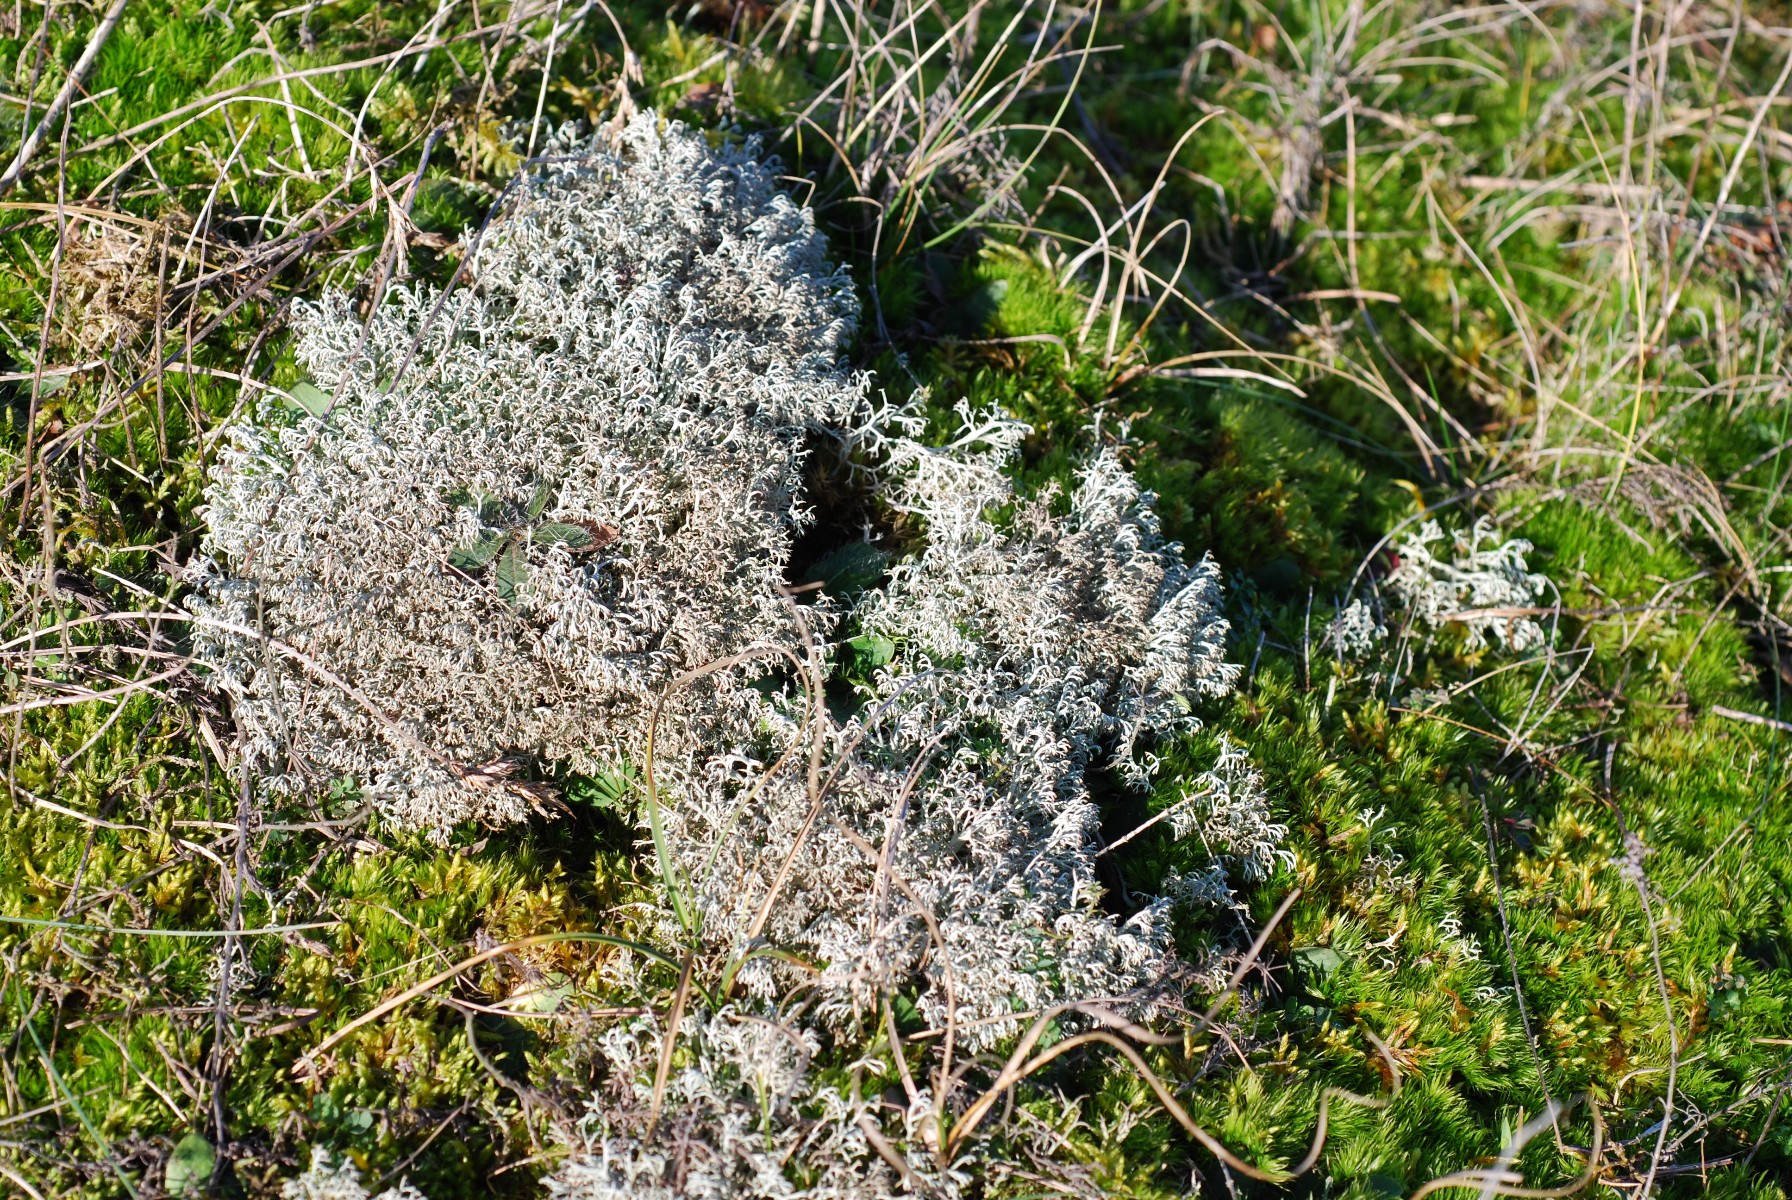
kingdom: Fungi
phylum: Ascomycota
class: Lecanoromycetes
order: Lecanorales
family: Cladoniaceae
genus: Cladonia
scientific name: Cladonia rangiferina
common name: askegrå rensdyrlav
